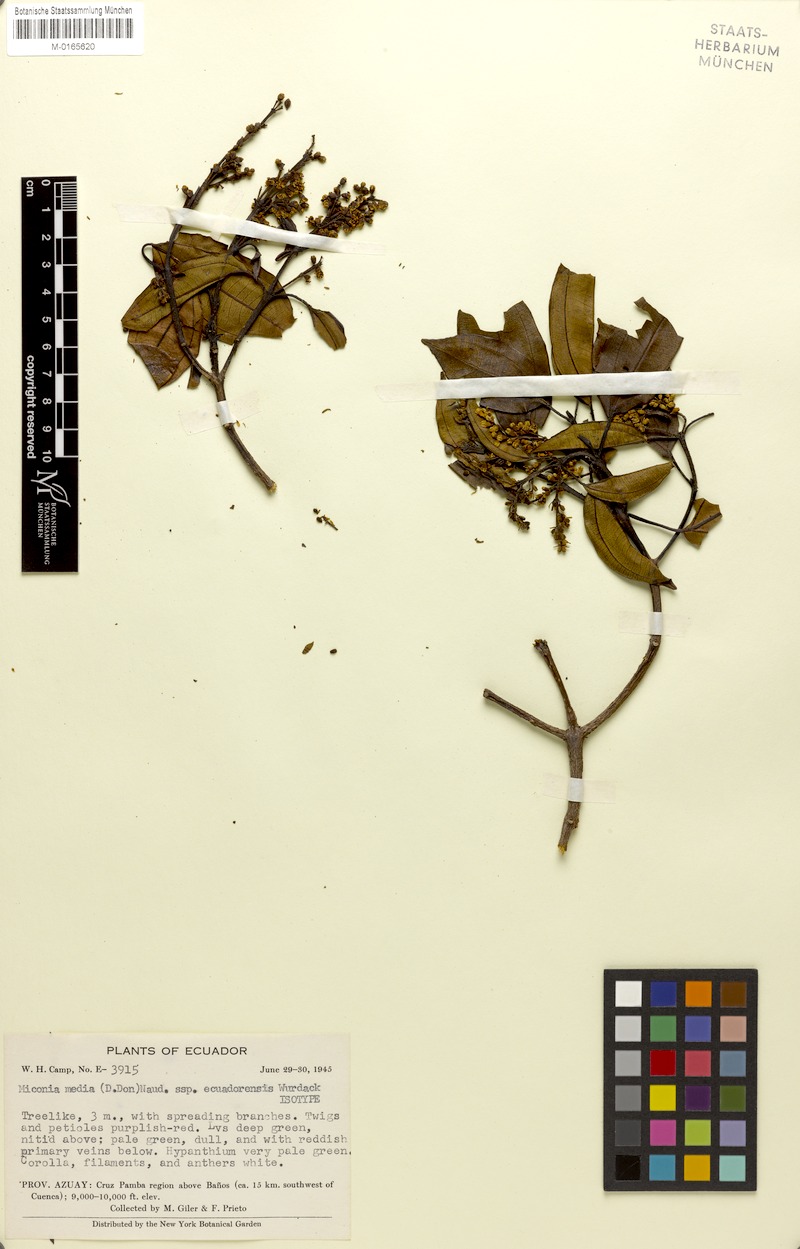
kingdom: Plantae
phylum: Tracheophyta
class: Magnoliopsida
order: Myrtales
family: Melastomataceae
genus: Miconia
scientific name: Miconia media
